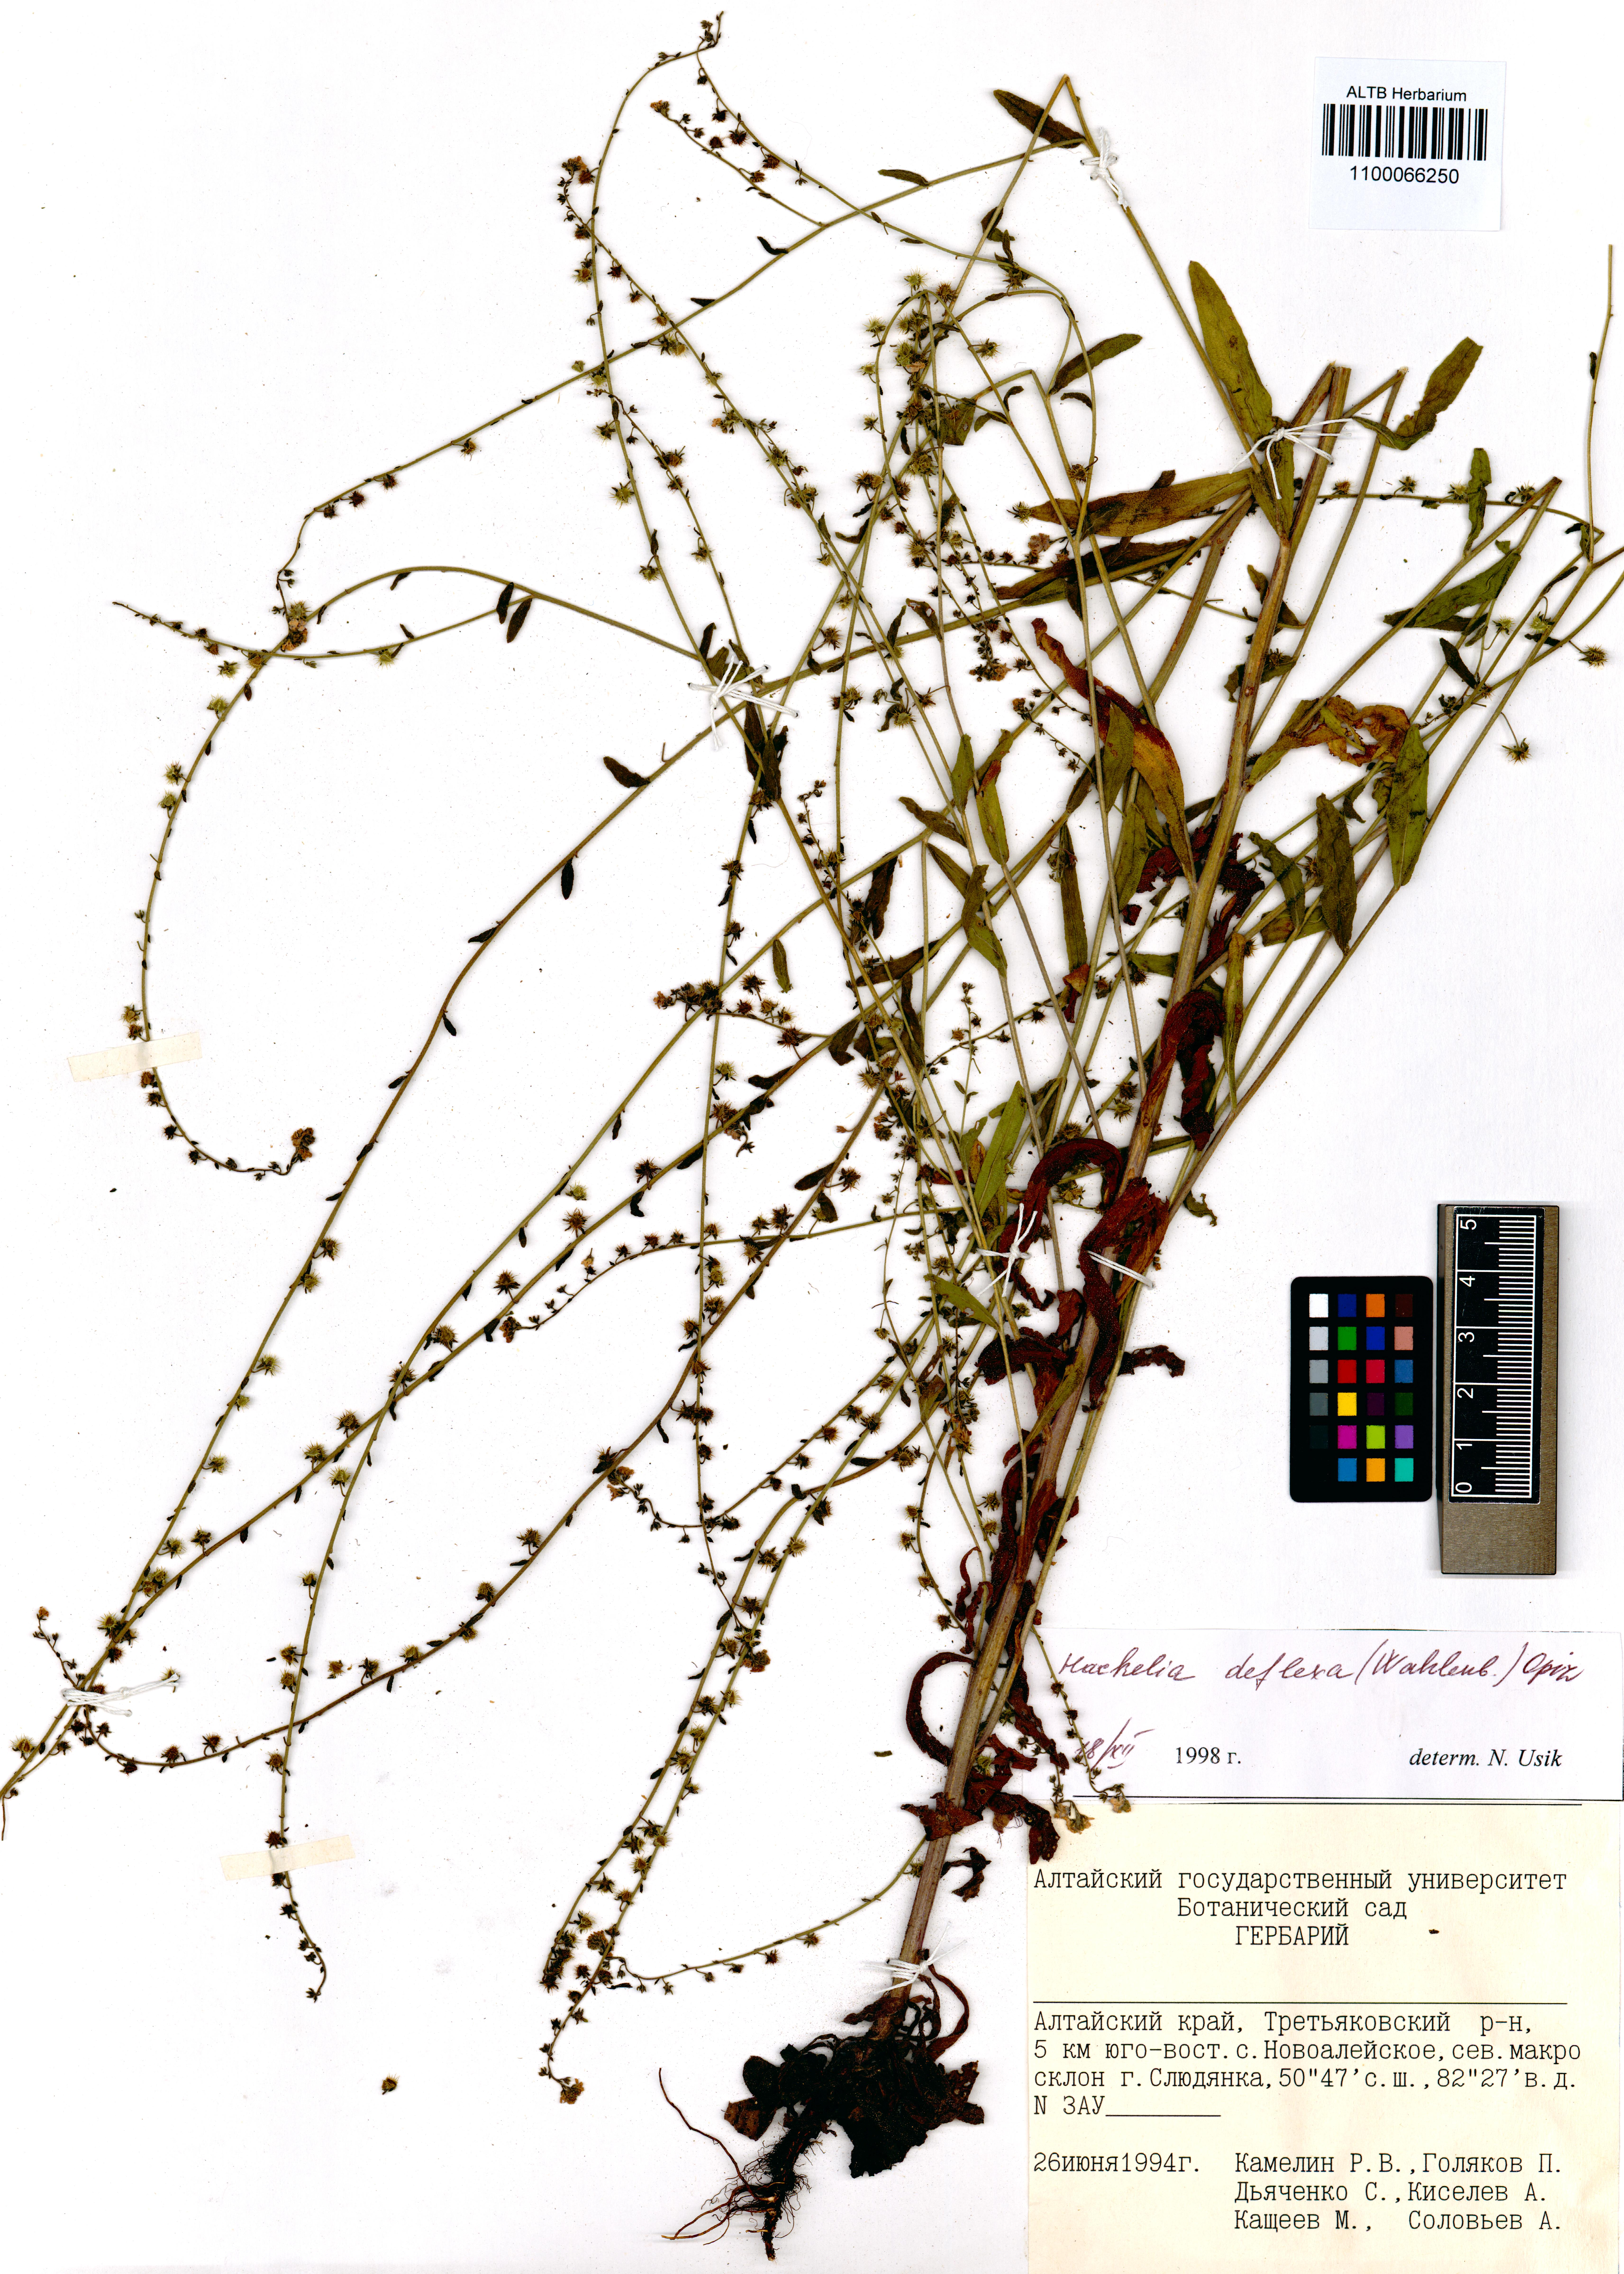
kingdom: Plantae
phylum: Tracheophyta
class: Magnoliopsida
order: Boraginales
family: Boraginaceae
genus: Hackelia
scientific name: Hackelia deflexa
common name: Nodding stickseed
